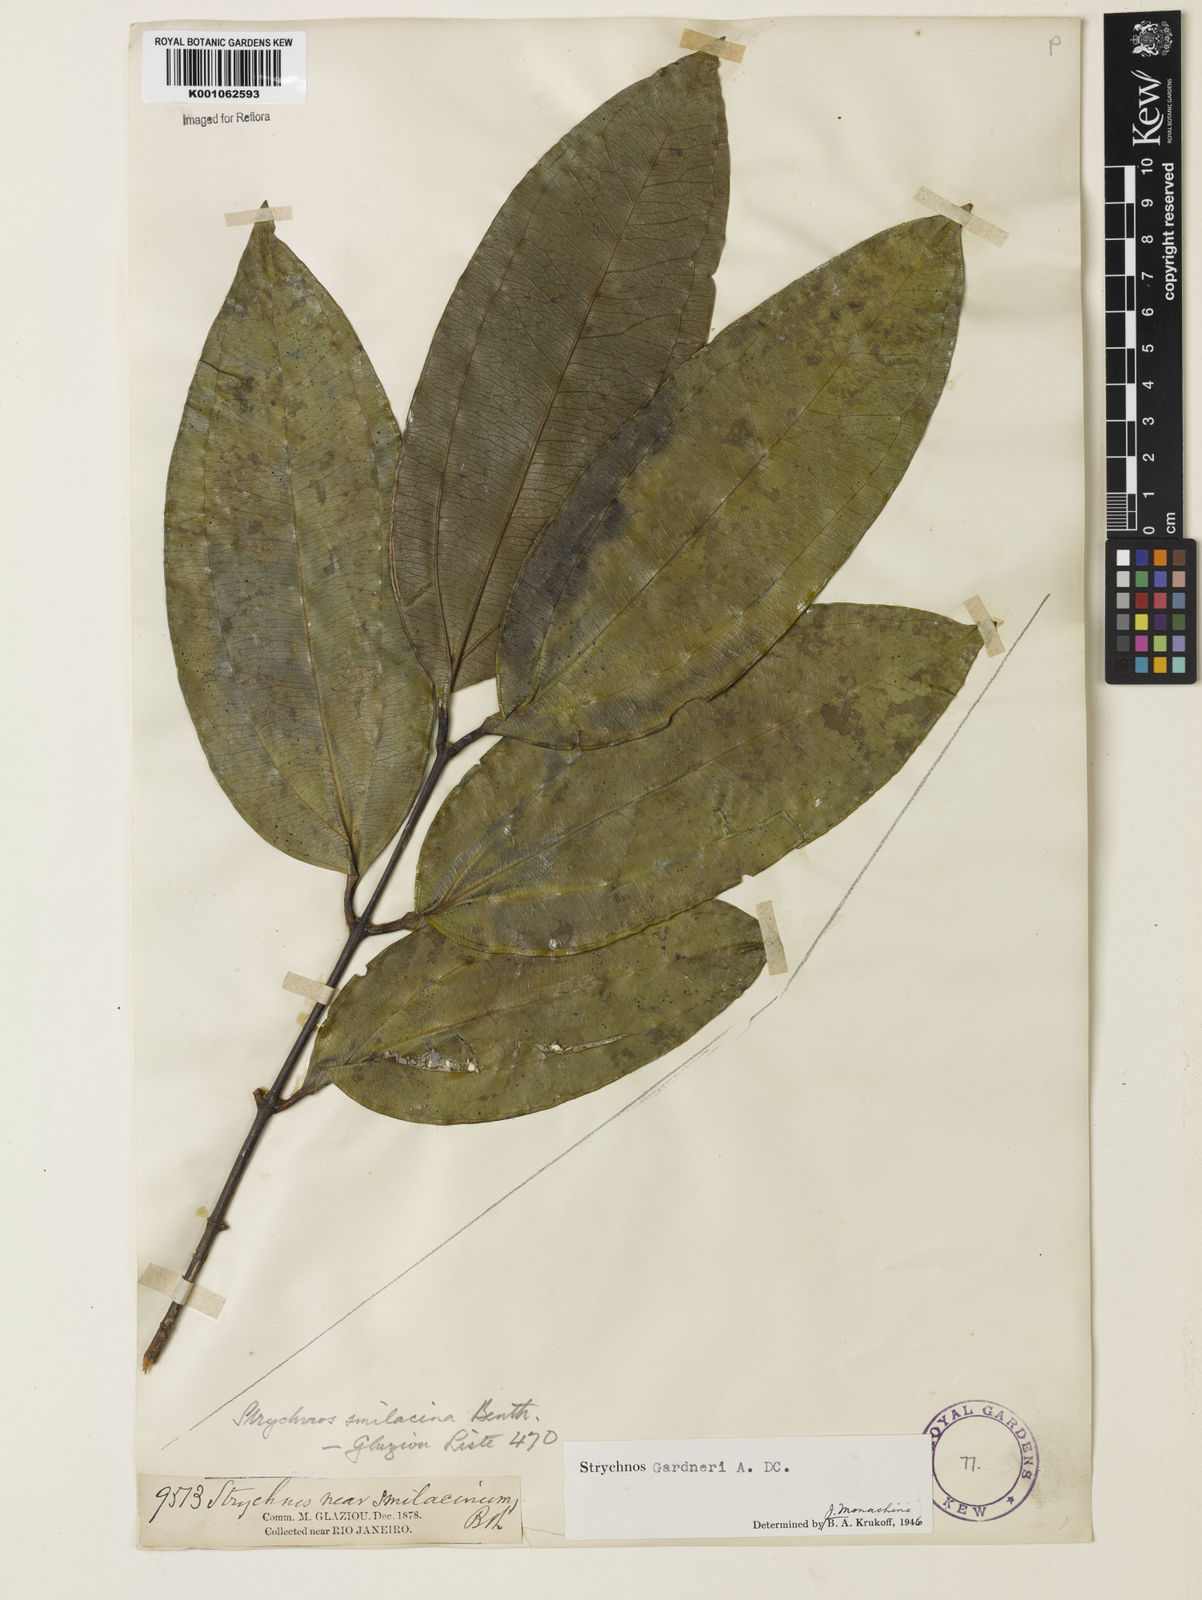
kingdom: Plantae
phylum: Tracheophyta
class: Magnoliopsida
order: Gentianales
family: Loganiaceae
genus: Strychnos
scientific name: Strychnos gardneri
